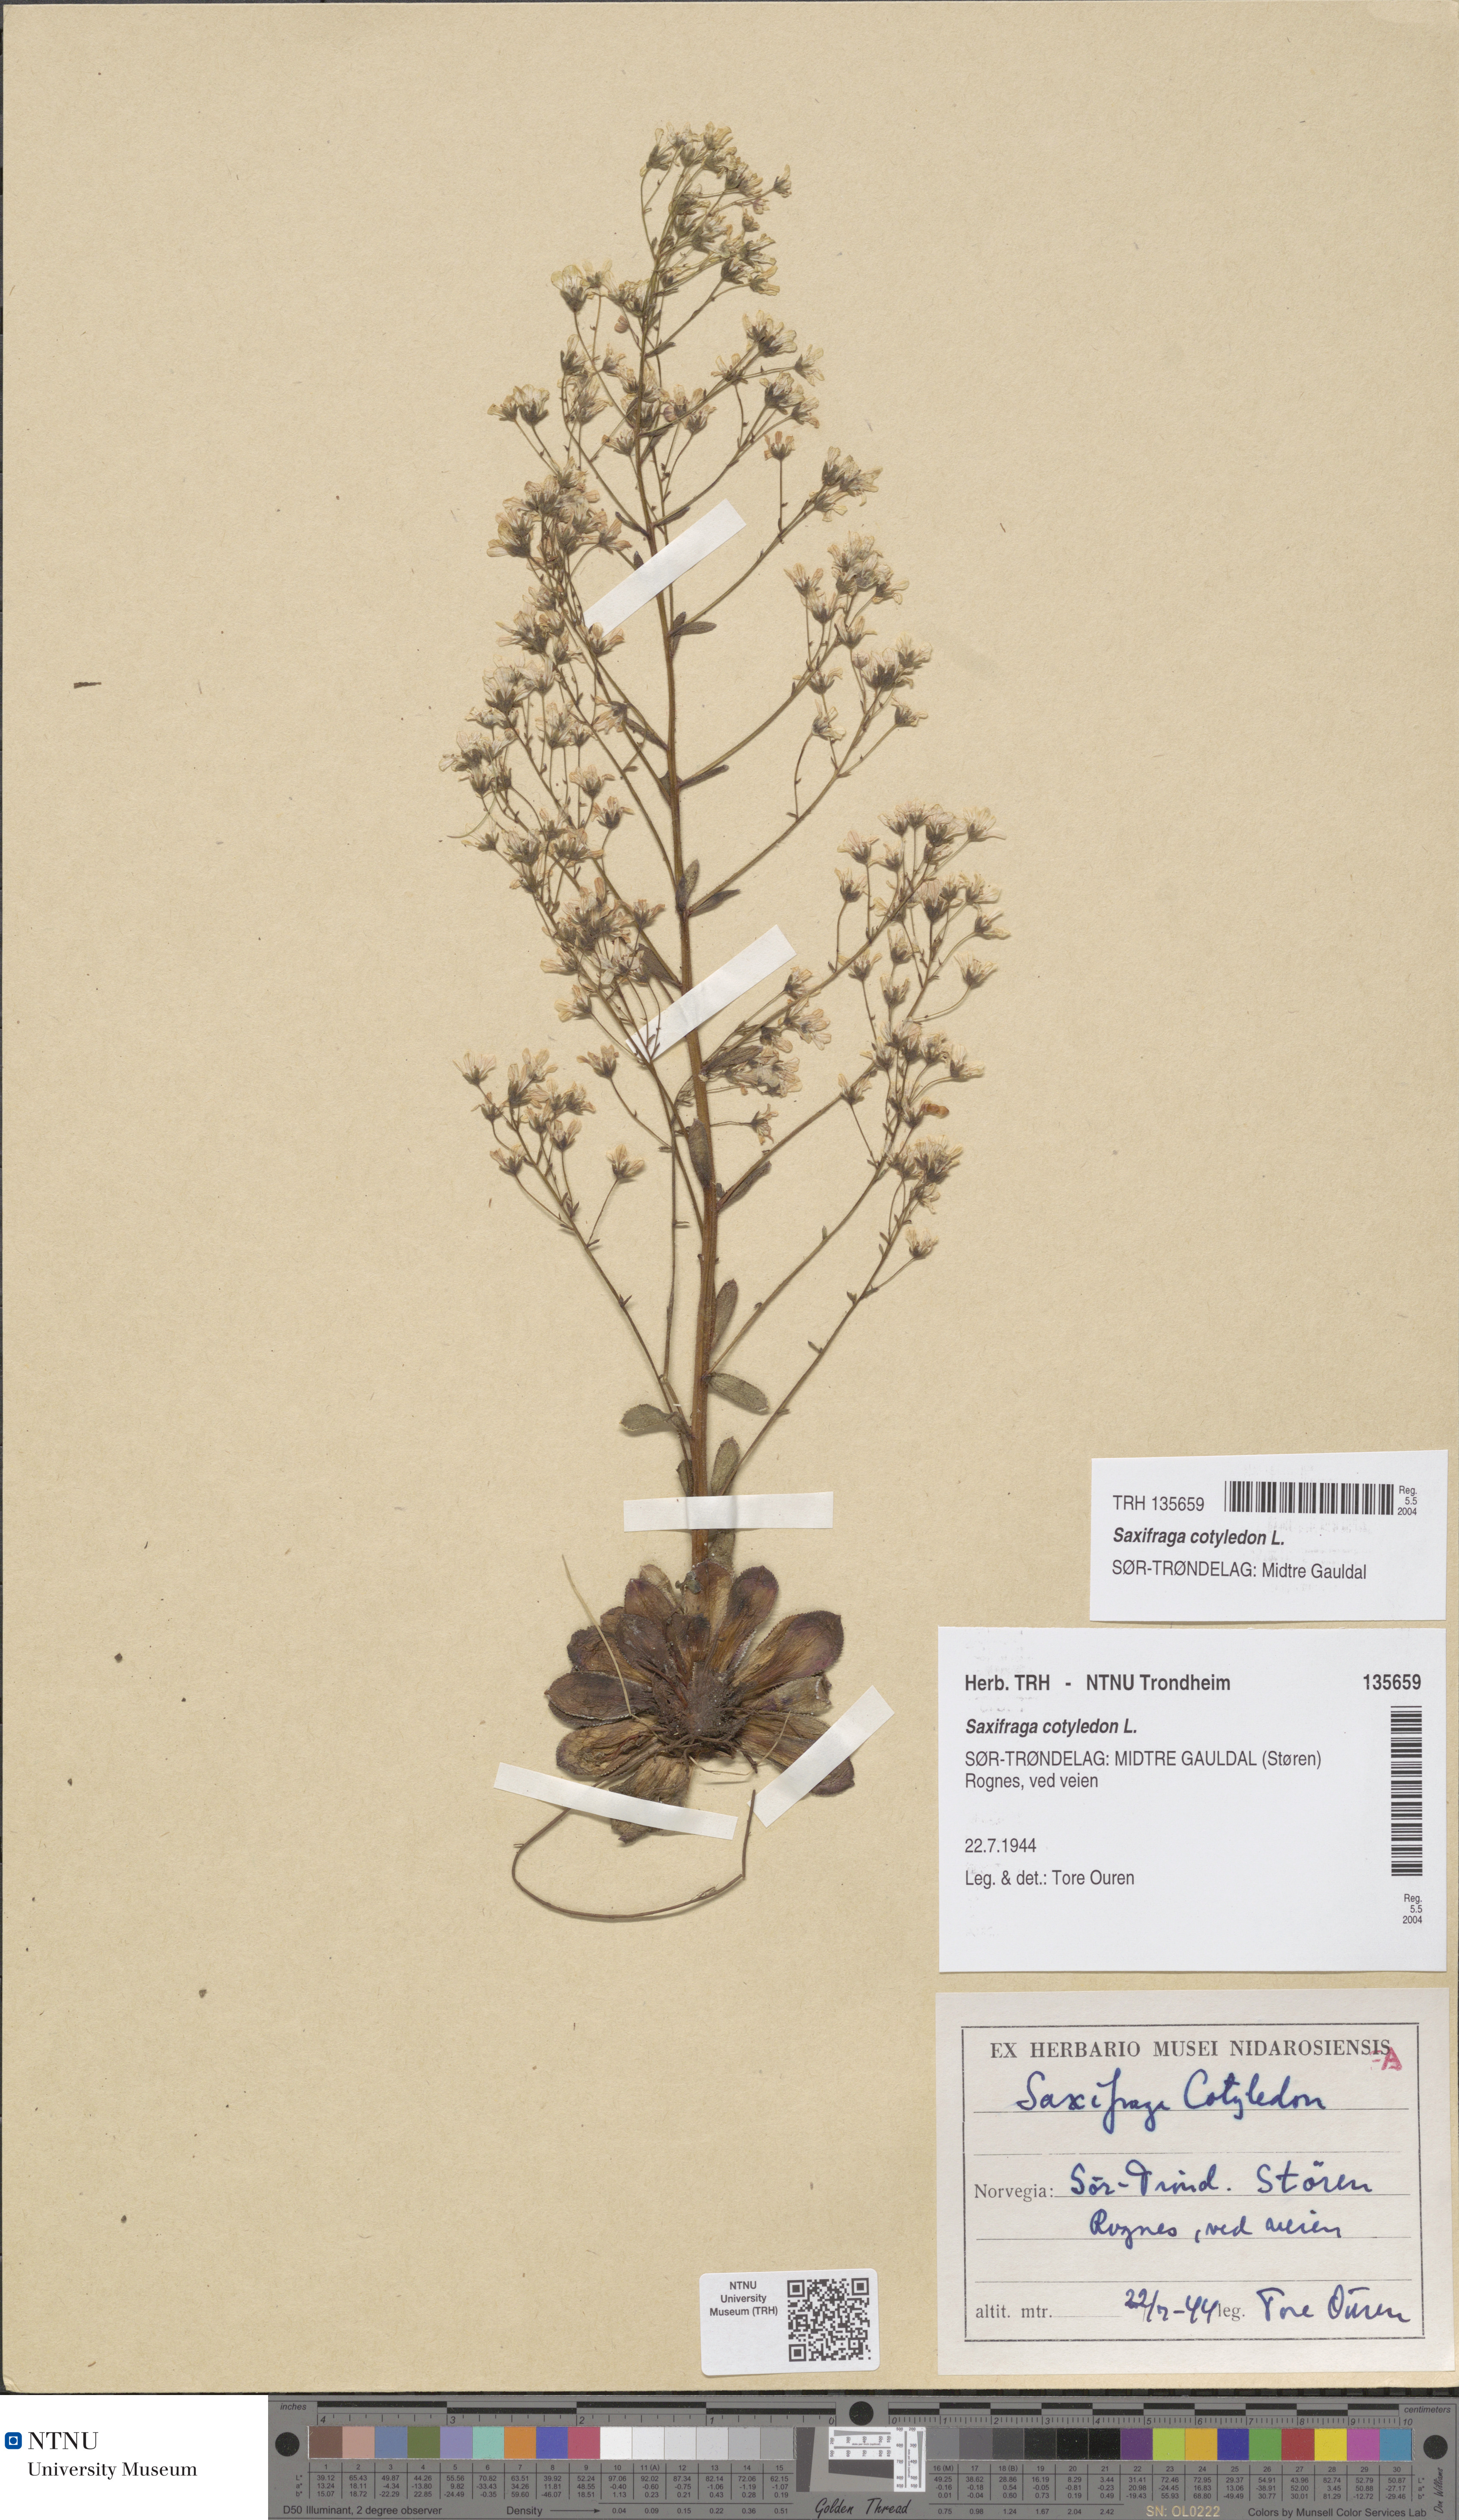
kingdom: Plantae
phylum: Tracheophyta
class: Magnoliopsida
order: Saxifragales
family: Saxifragaceae
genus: Saxifraga
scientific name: Saxifraga cotyledon
